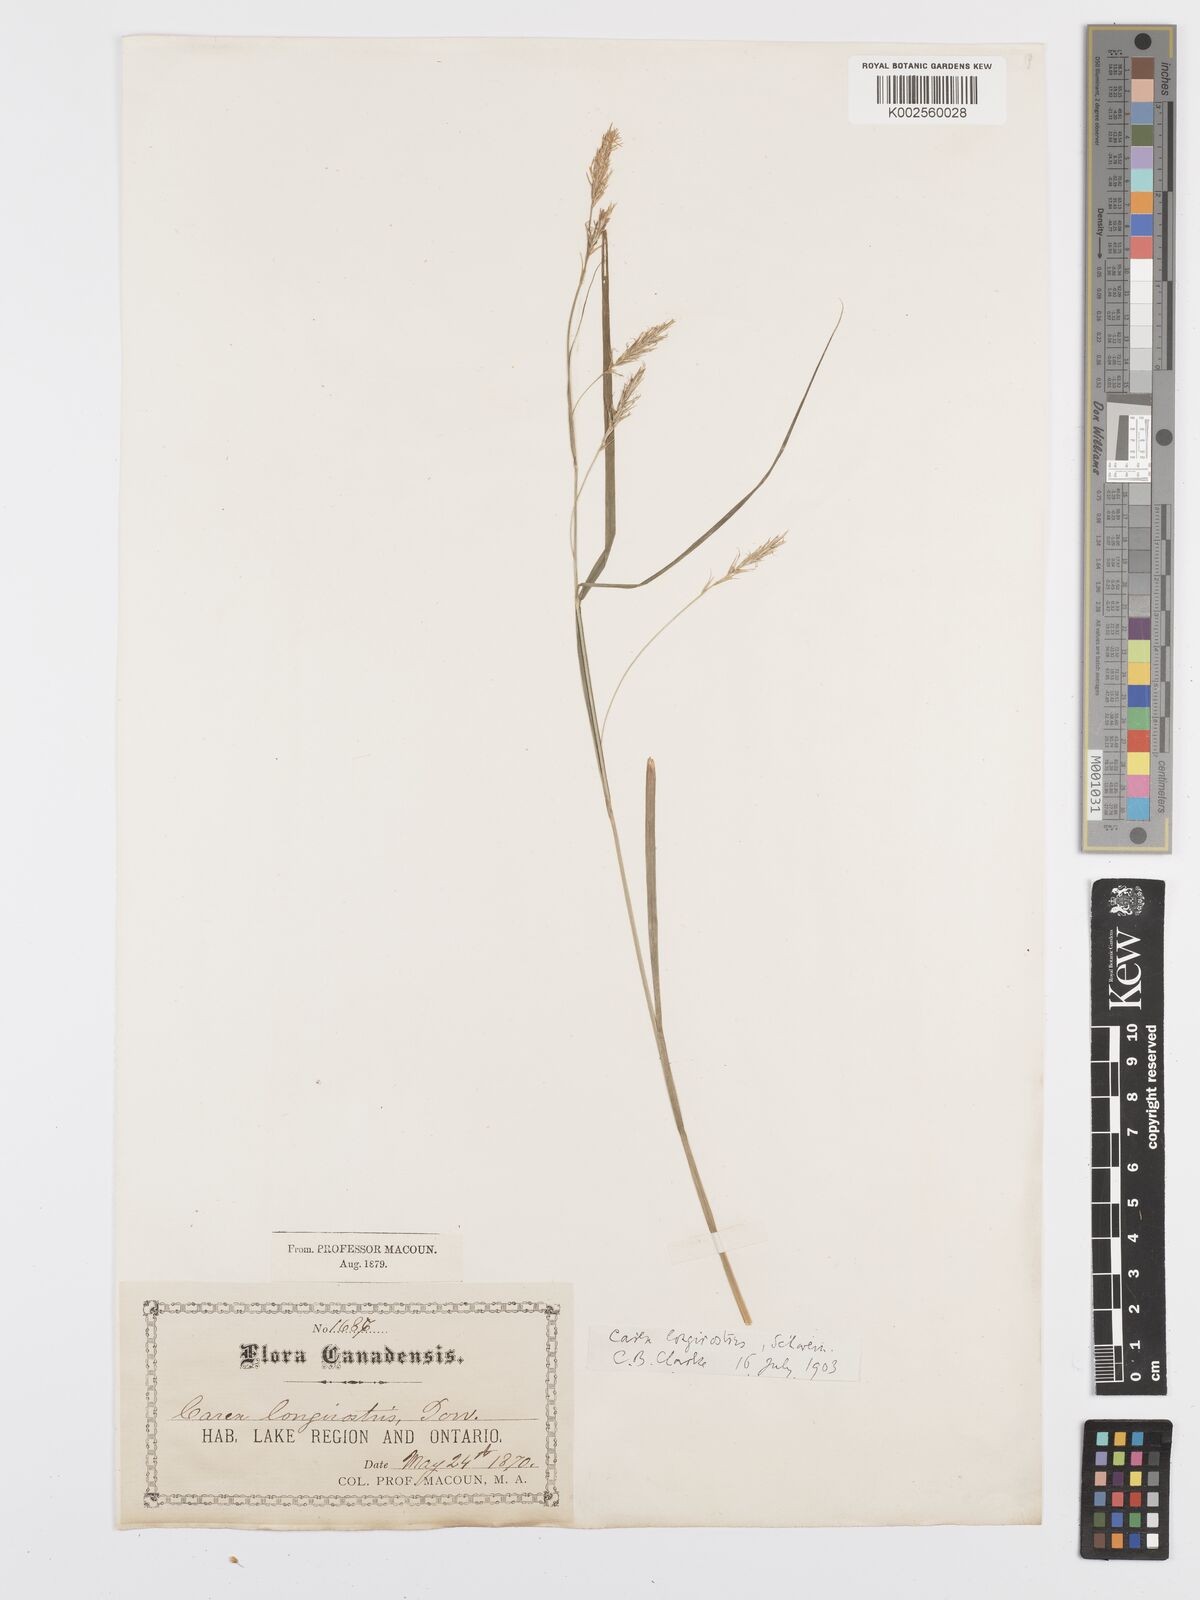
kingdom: Plantae
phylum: Tracheophyta
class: Liliopsida
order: Poales
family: Cyperaceae
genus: Carex
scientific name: Carex sprengelii
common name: Long-beaked sedge
